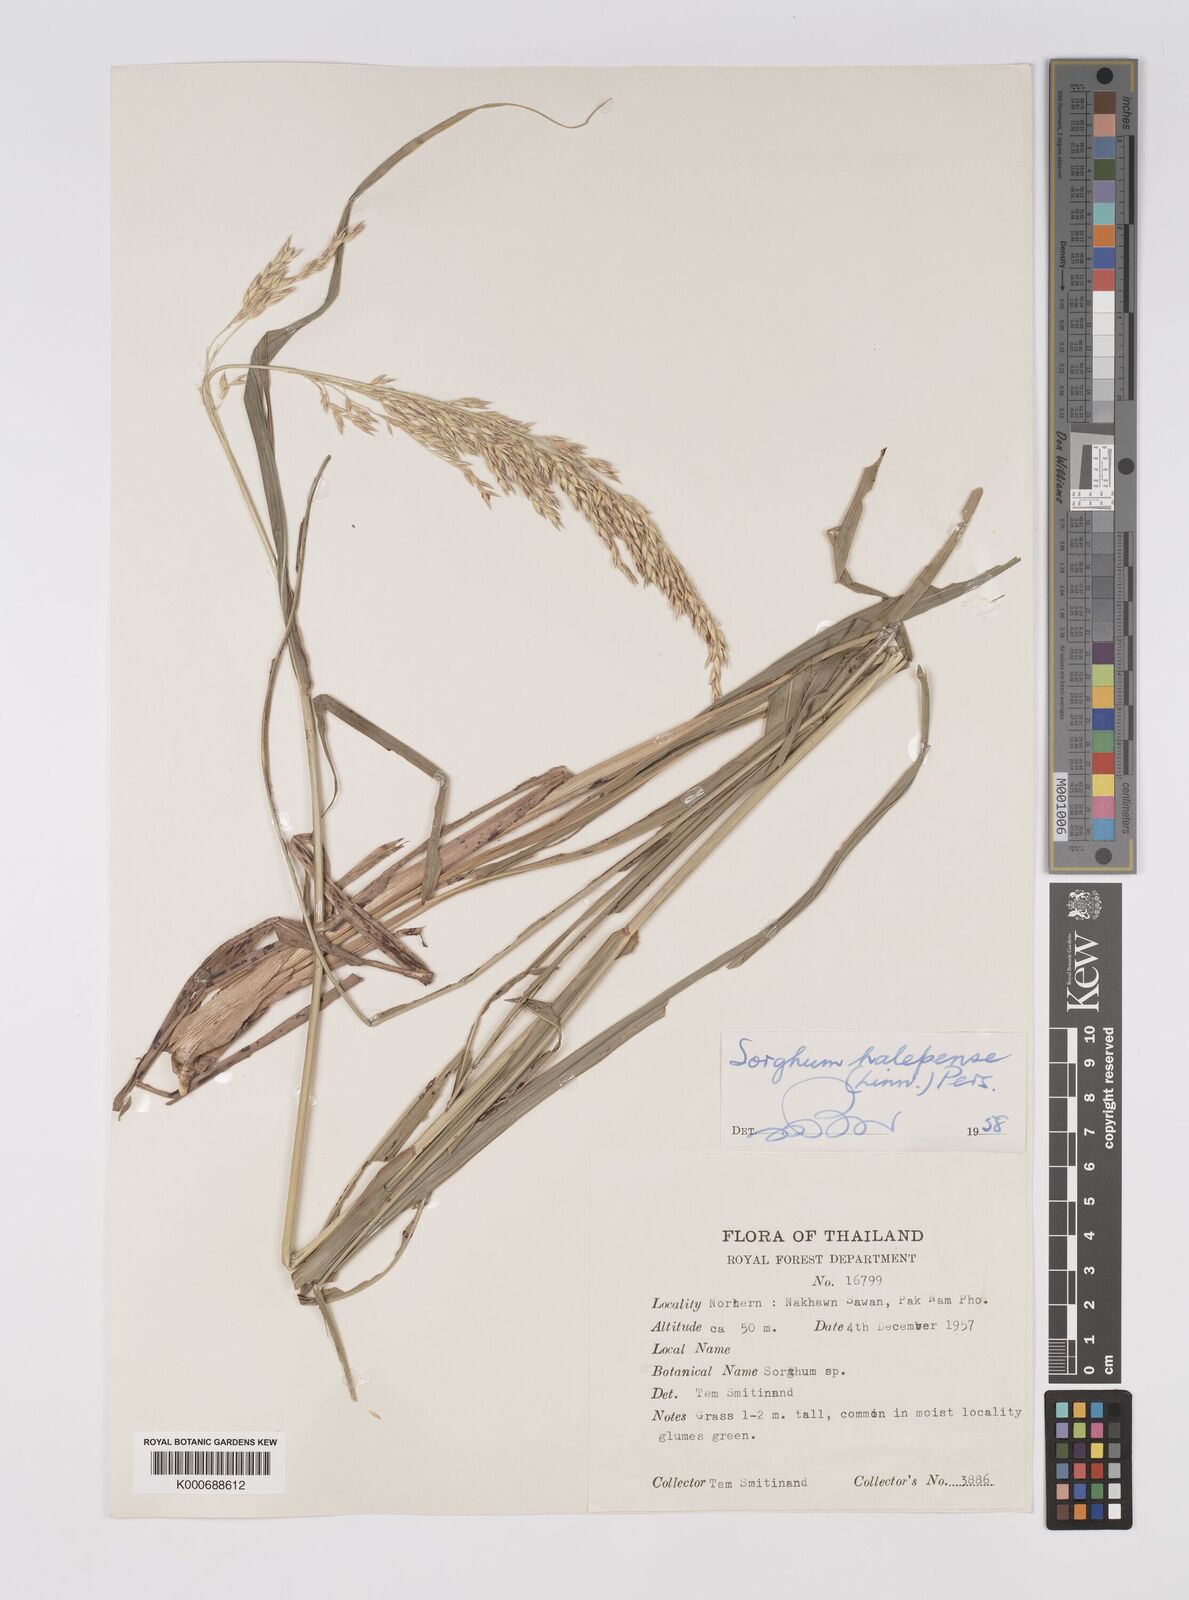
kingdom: Plantae
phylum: Tracheophyta
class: Liliopsida
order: Poales
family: Poaceae
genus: Sorghum
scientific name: Sorghum propinquum
